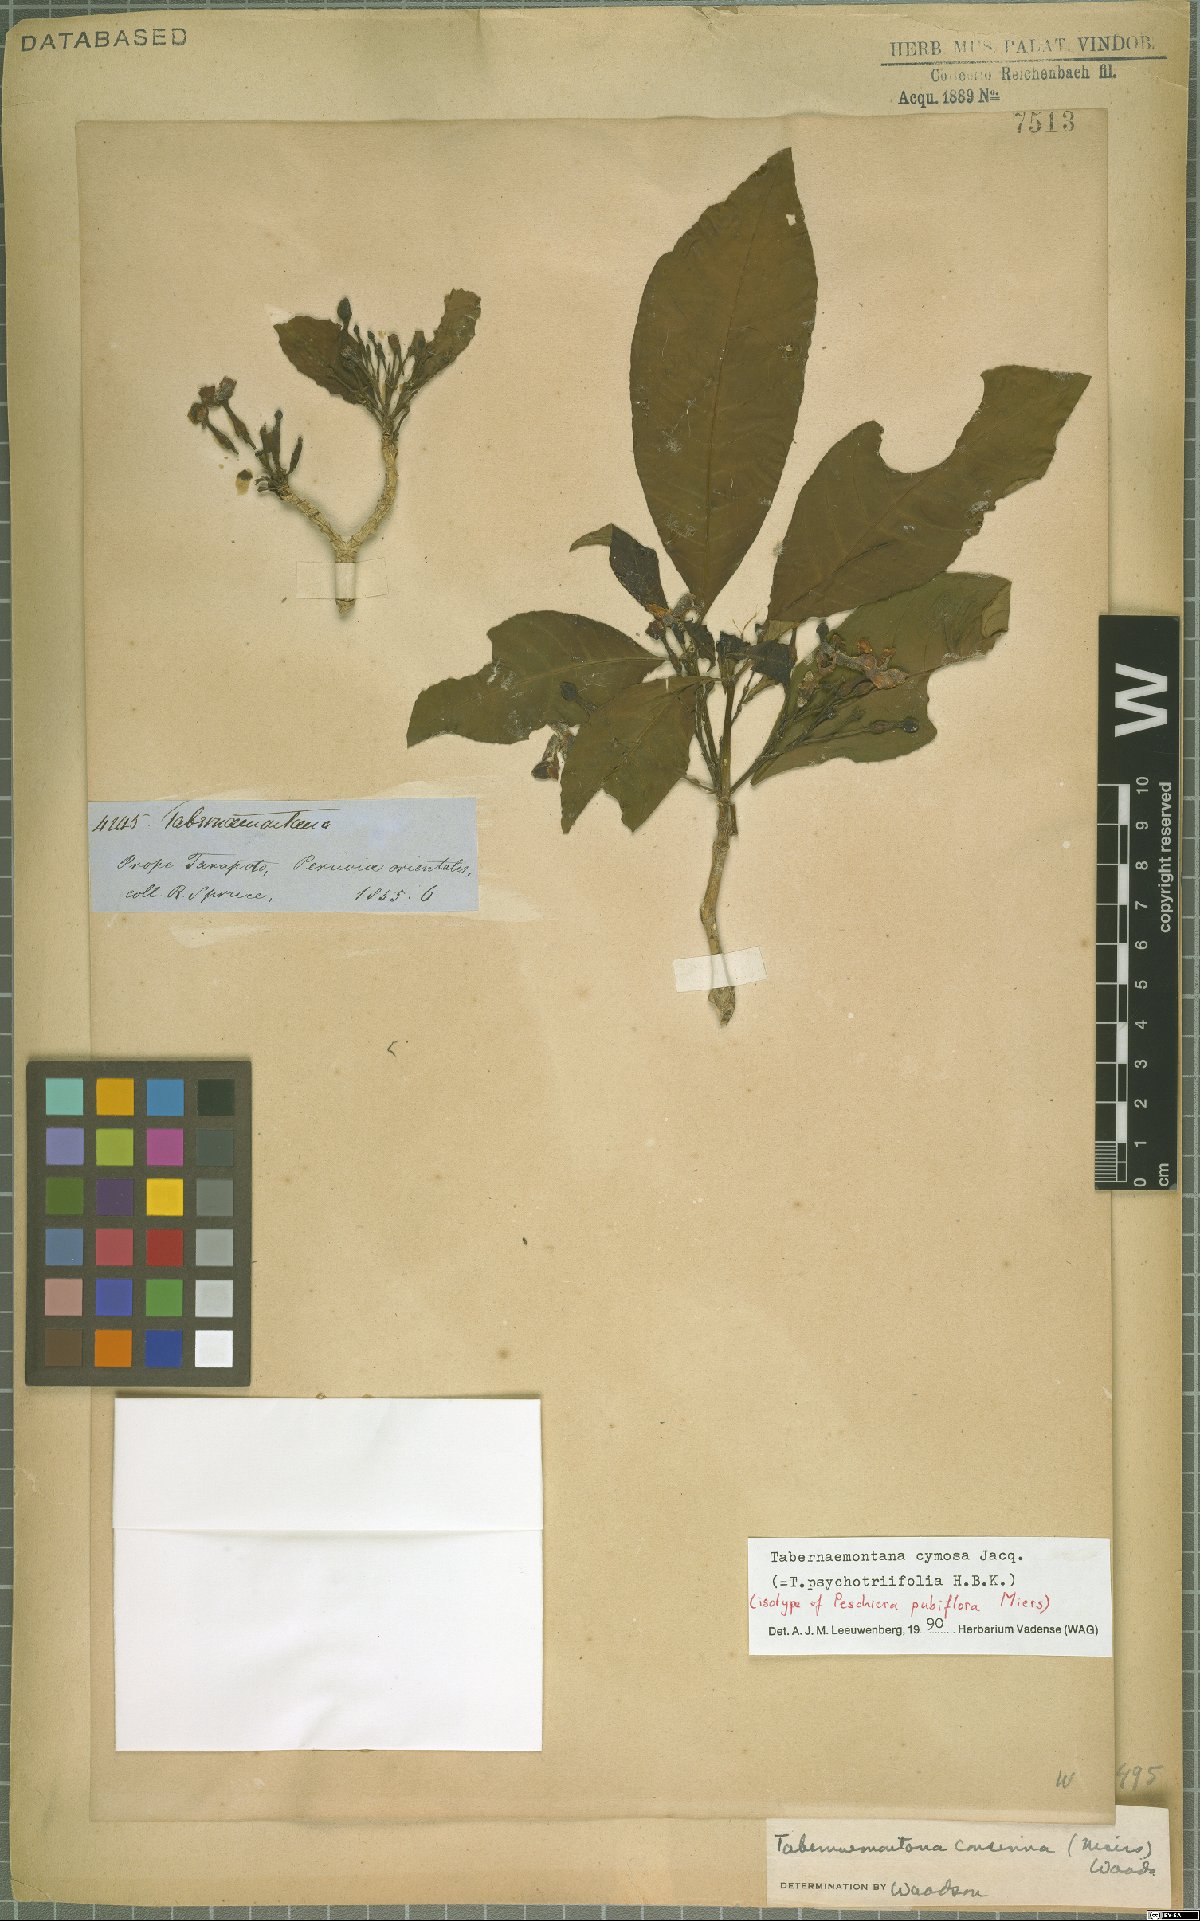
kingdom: Plantae
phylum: Tracheophyta
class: Magnoliopsida
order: Gentianales
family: Apocynaceae
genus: Tabernaemontana
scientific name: Tabernaemontana cymosa
